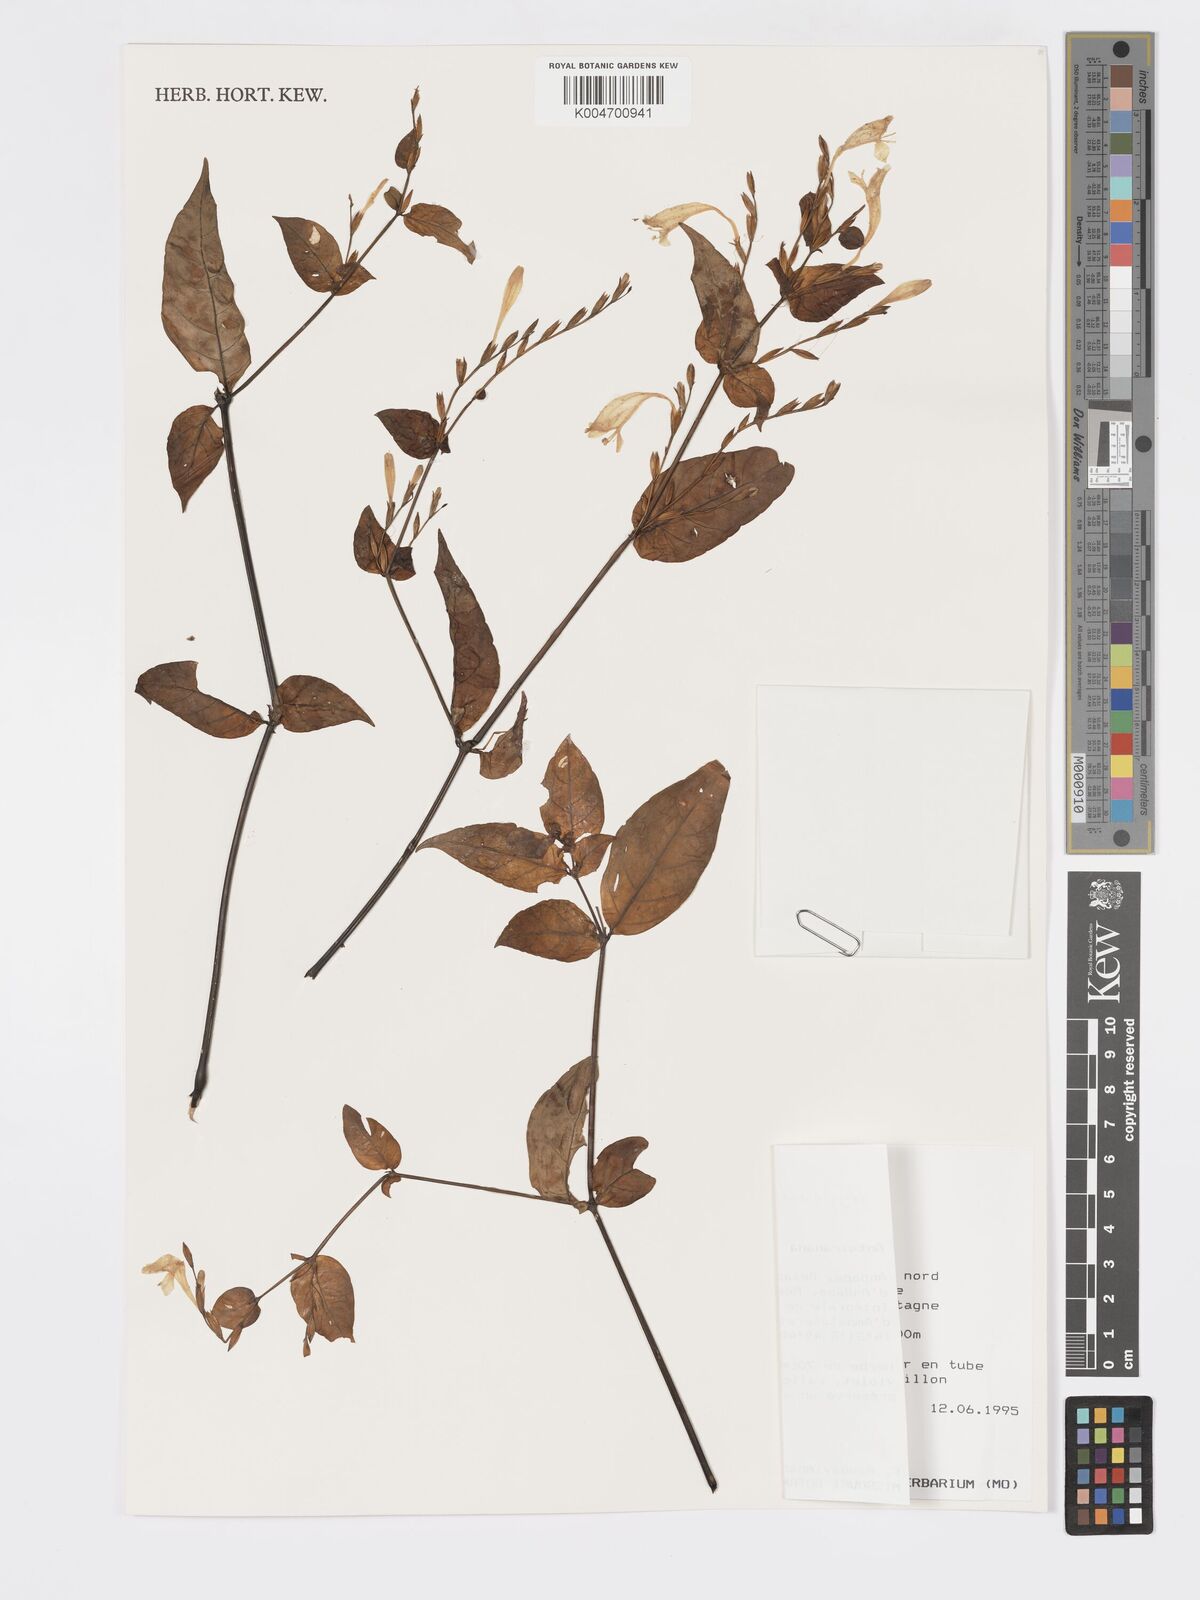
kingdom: Plantae
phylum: Tracheophyta
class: Magnoliopsida
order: Lamiales
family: Acanthaceae
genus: Hypoestes
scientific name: Hypoestes
